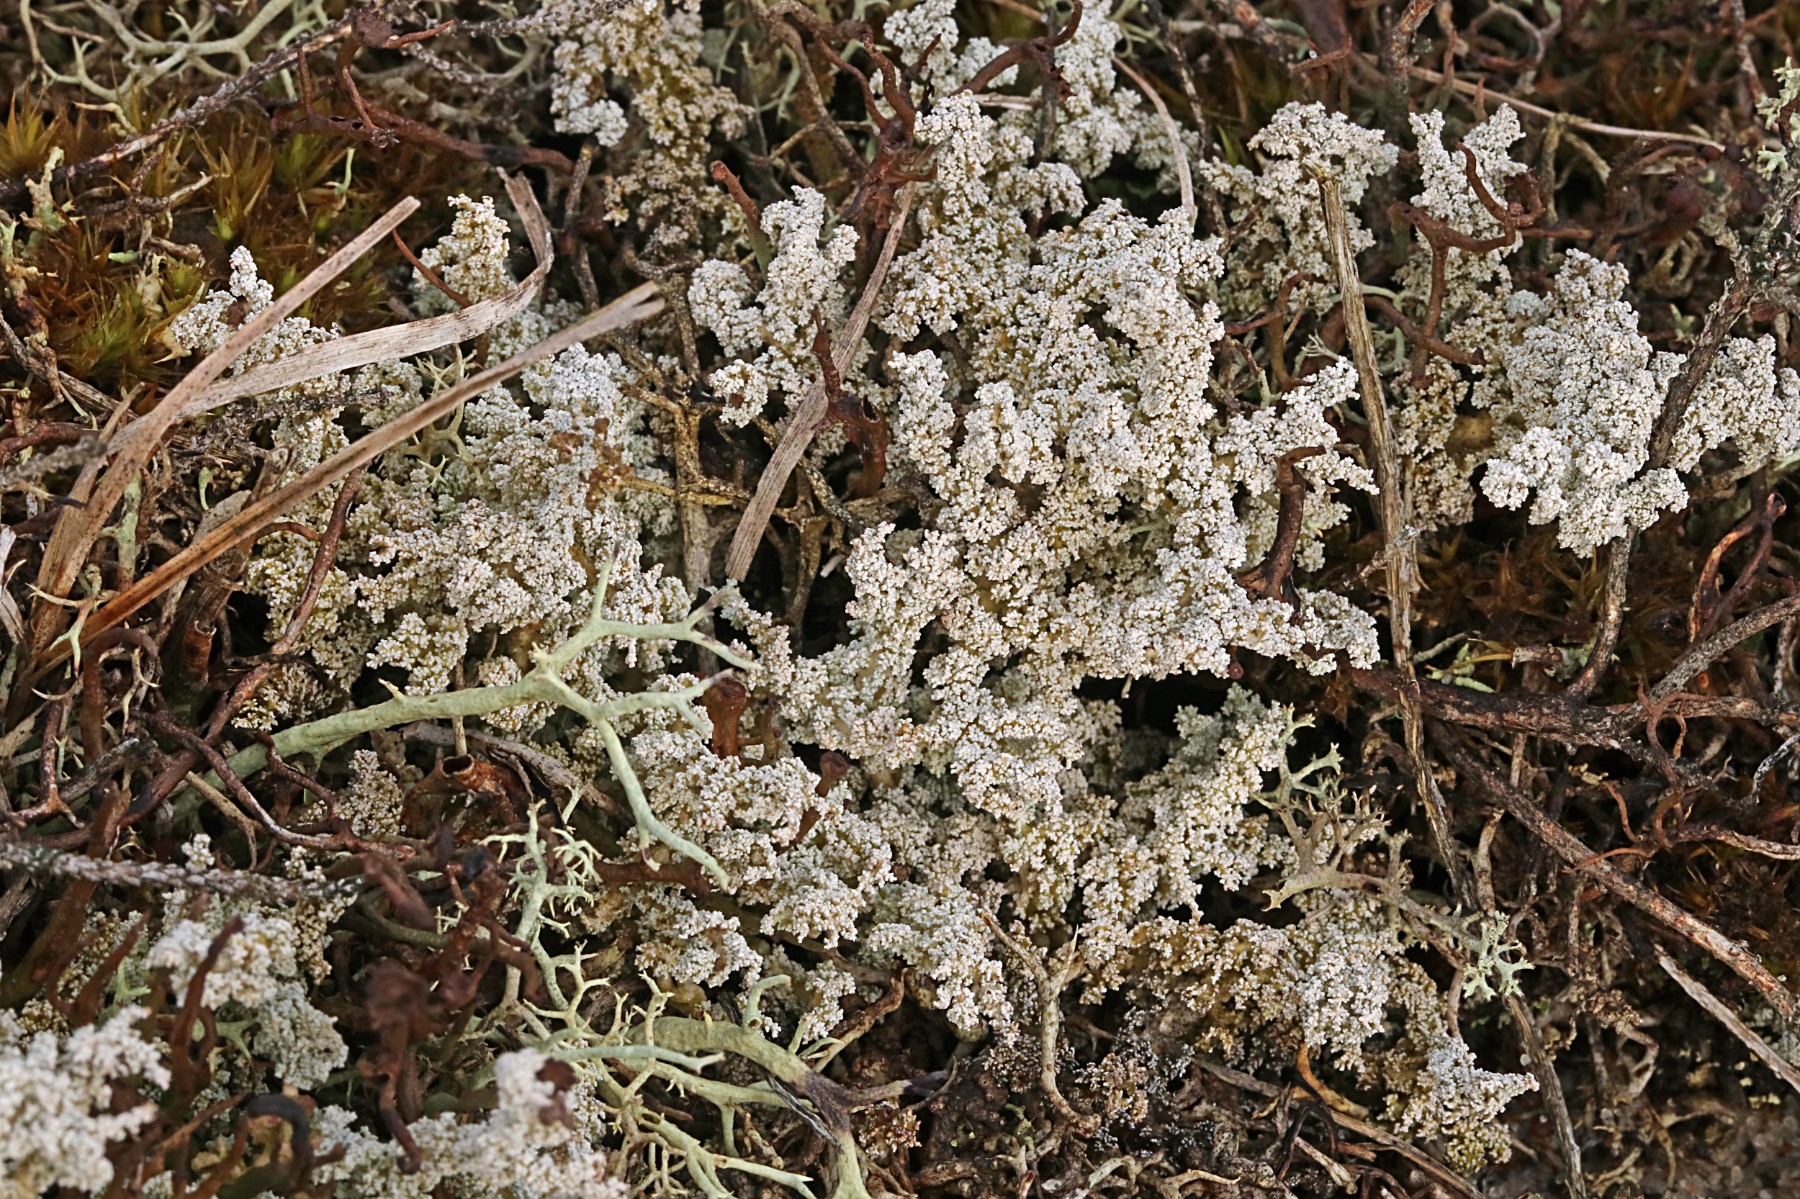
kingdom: Fungi
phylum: Ascomycota
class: Lecanoromycetes
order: Lecanorales
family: Stereocaulaceae
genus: Stereocaulon
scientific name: Stereocaulon saxatile
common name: klit-korallav
